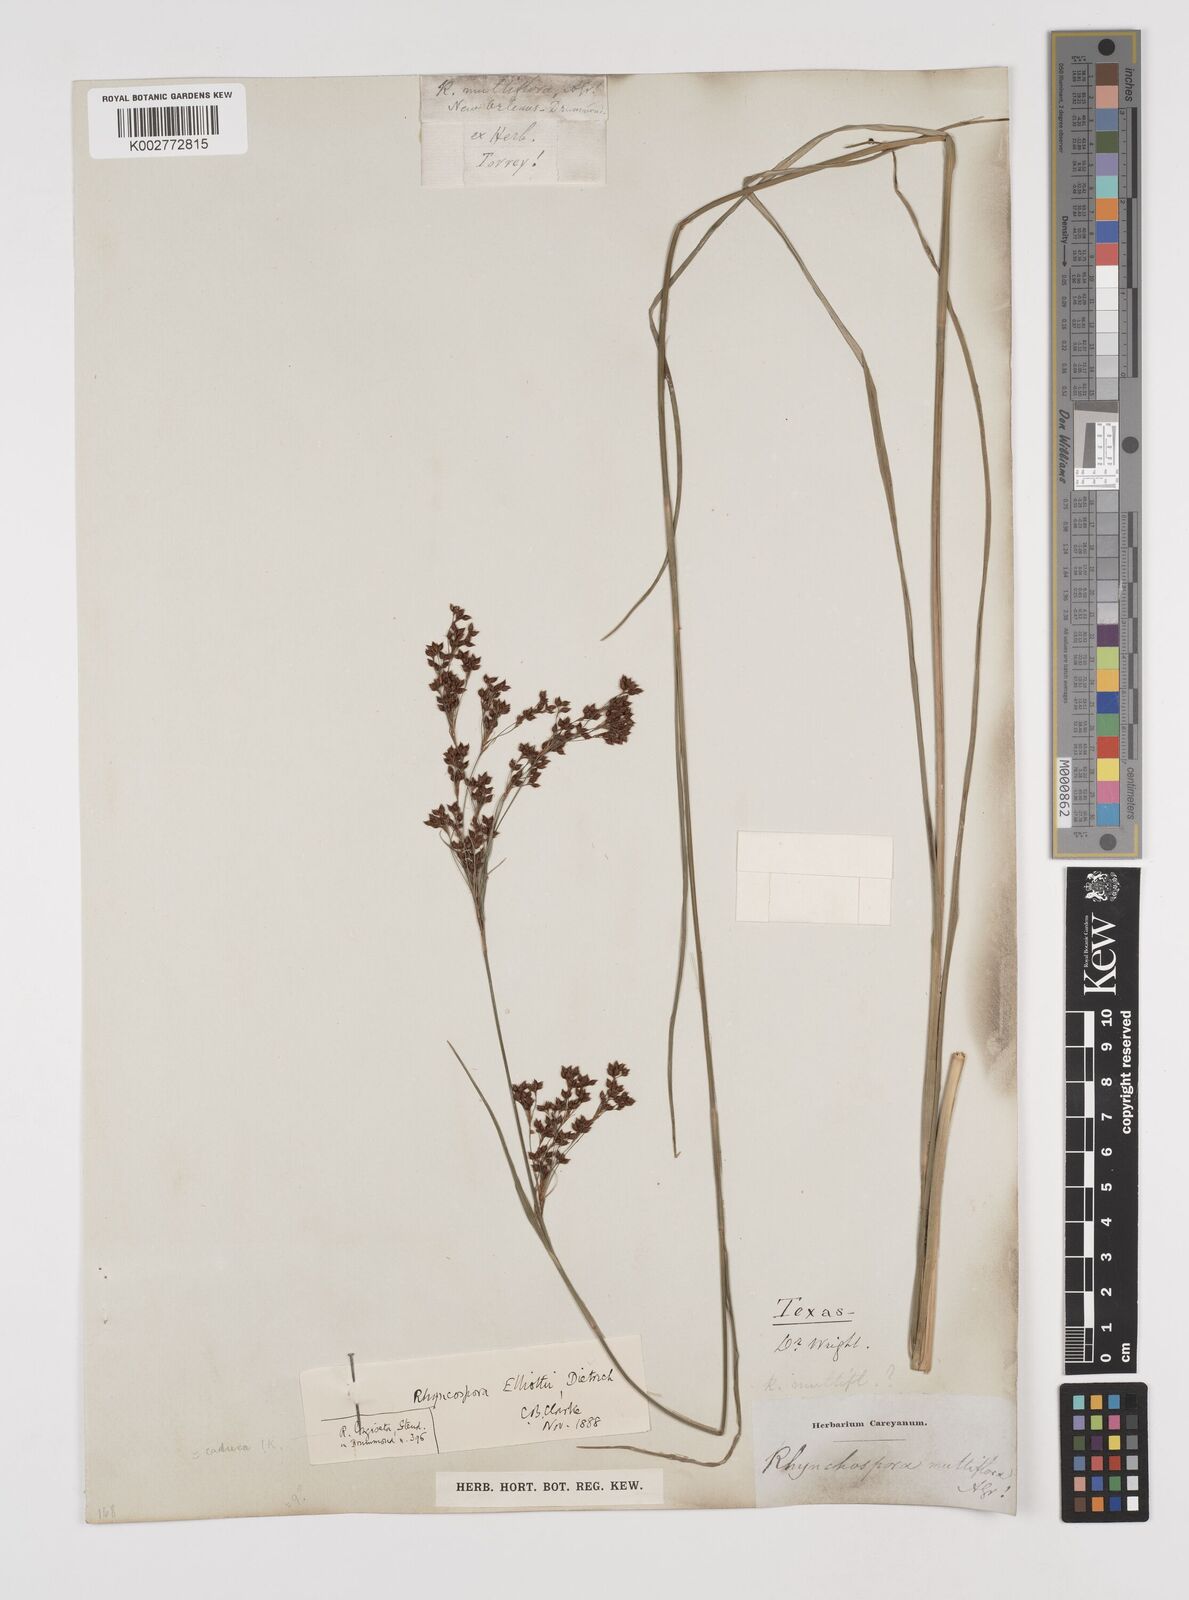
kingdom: Plantae
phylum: Tracheophyta
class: Liliopsida
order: Poales
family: Cyperaceae
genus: Rhynchospora
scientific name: Rhynchospora caduca
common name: Anglestem beaksedge
